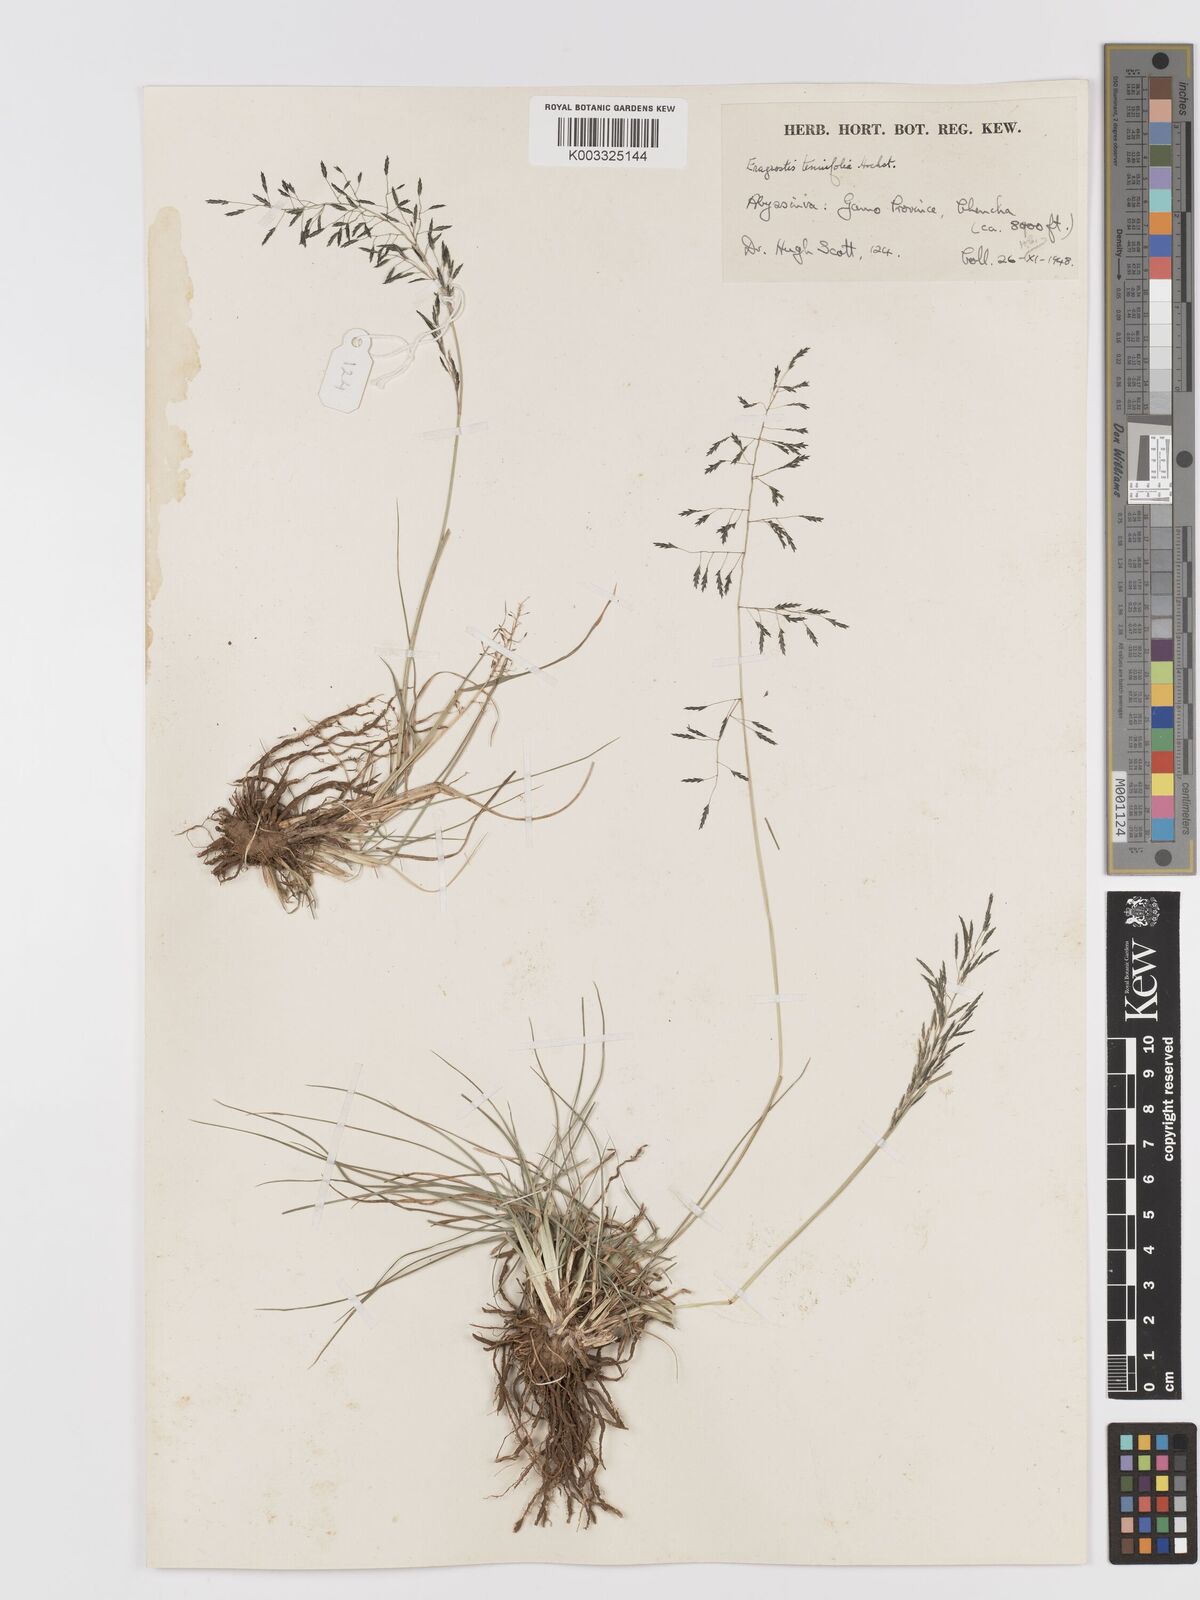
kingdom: Plantae
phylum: Tracheophyta
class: Liliopsida
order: Poales
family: Poaceae
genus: Eragrostis
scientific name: Eragrostis tenuifolia
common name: Elastic grass
